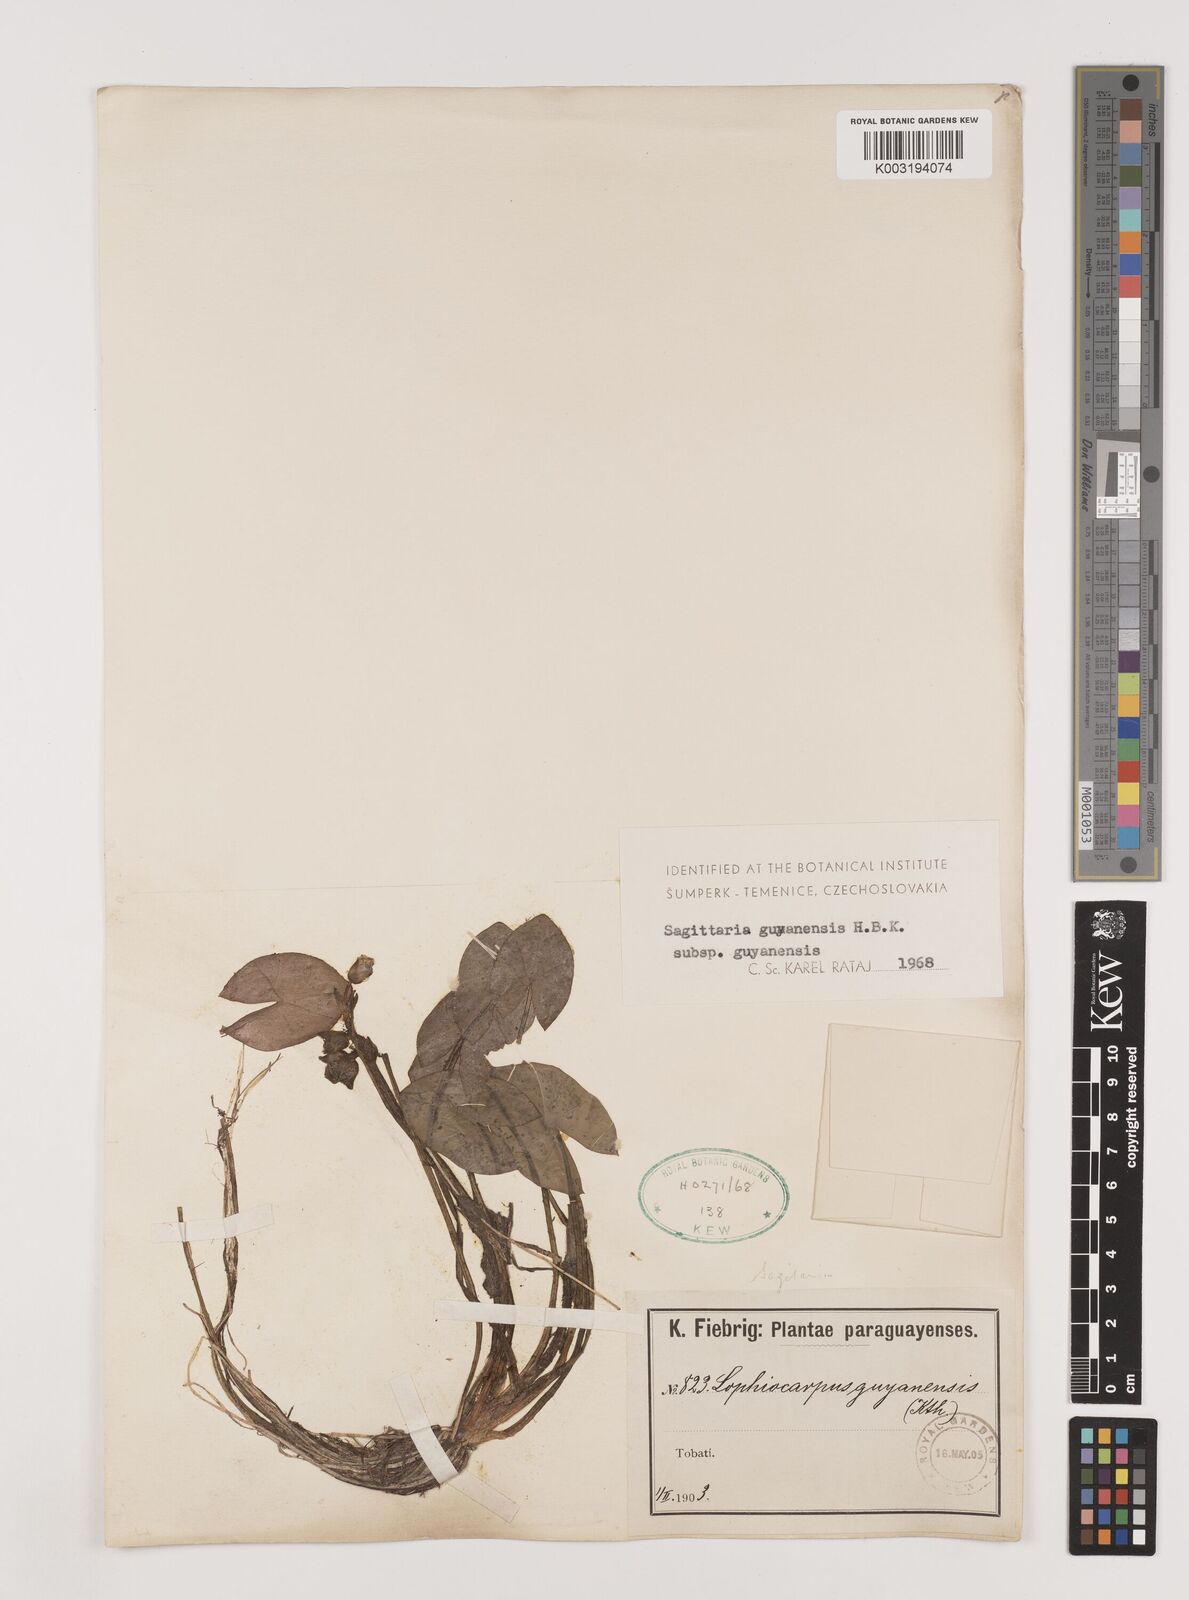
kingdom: Plantae
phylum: Tracheophyta
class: Liliopsida
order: Alismatales
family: Alismataceae
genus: Sagittaria
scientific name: Sagittaria guayanensis
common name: Guyanese arrowhead
